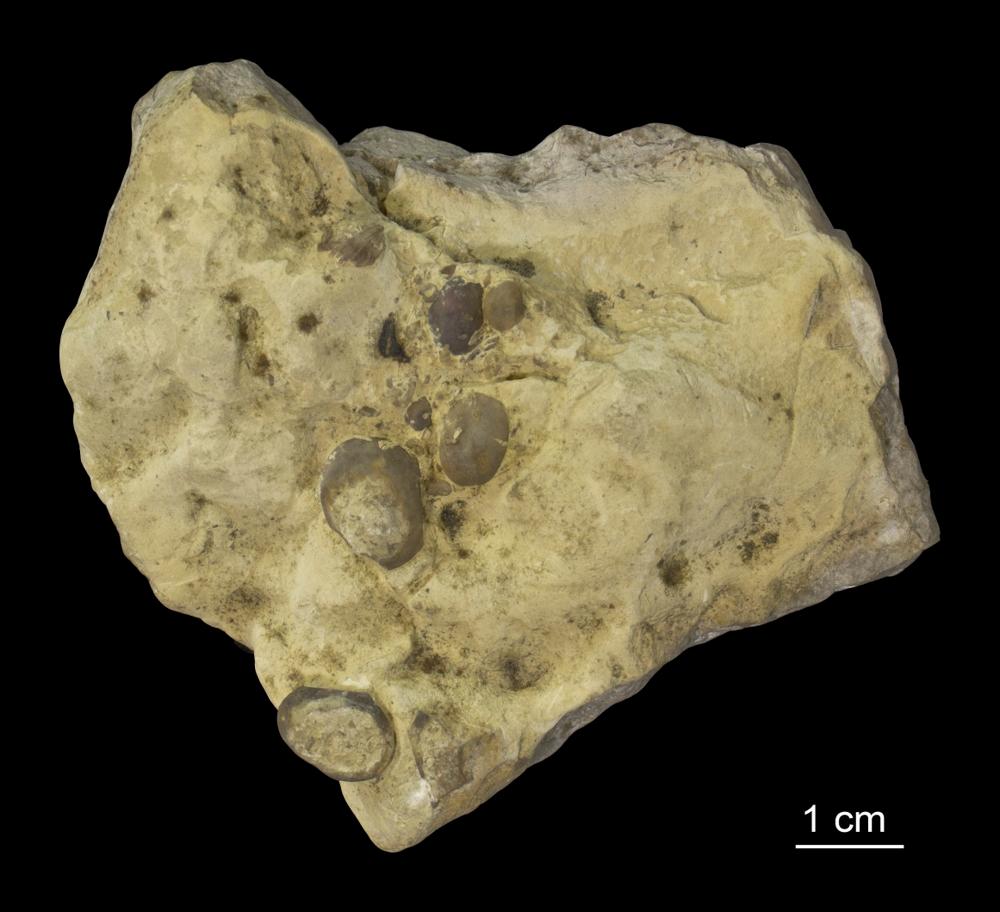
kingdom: Animalia
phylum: Arthropoda
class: Ostracoda
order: Platycopida
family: Leperditiidae
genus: Leperditia
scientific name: Leperditia
